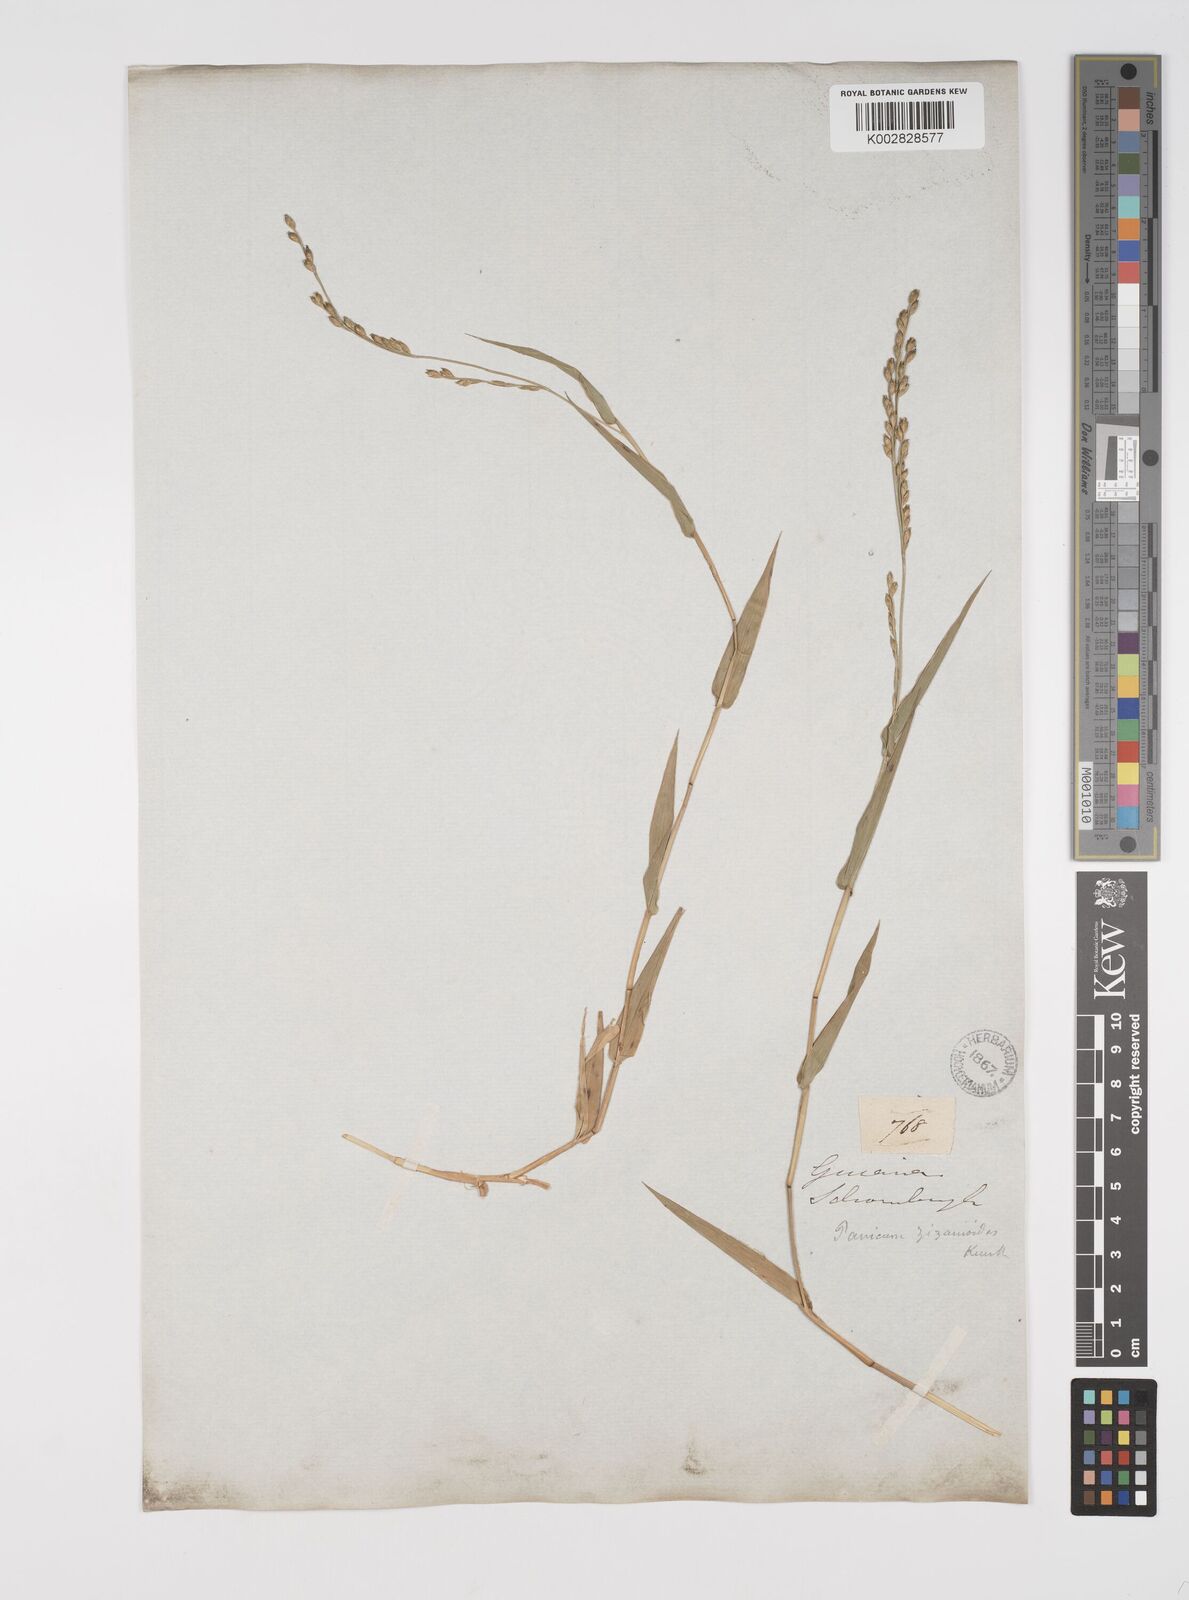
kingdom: Plantae
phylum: Tracheophyta
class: Liliopsida
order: Poales
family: Poaceae
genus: Acroceras
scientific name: Acroceras zizanioides
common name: Oat grass
